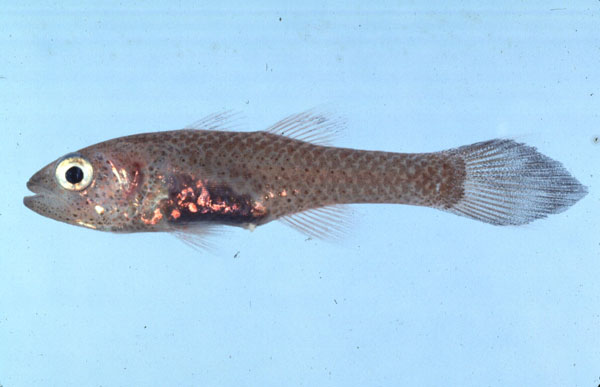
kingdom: Animalia
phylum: Chordata
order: Perciformes
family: Apogonidae
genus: Pseudamia
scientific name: Pseudamia hayashii
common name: Hayashi's cardinalfish
